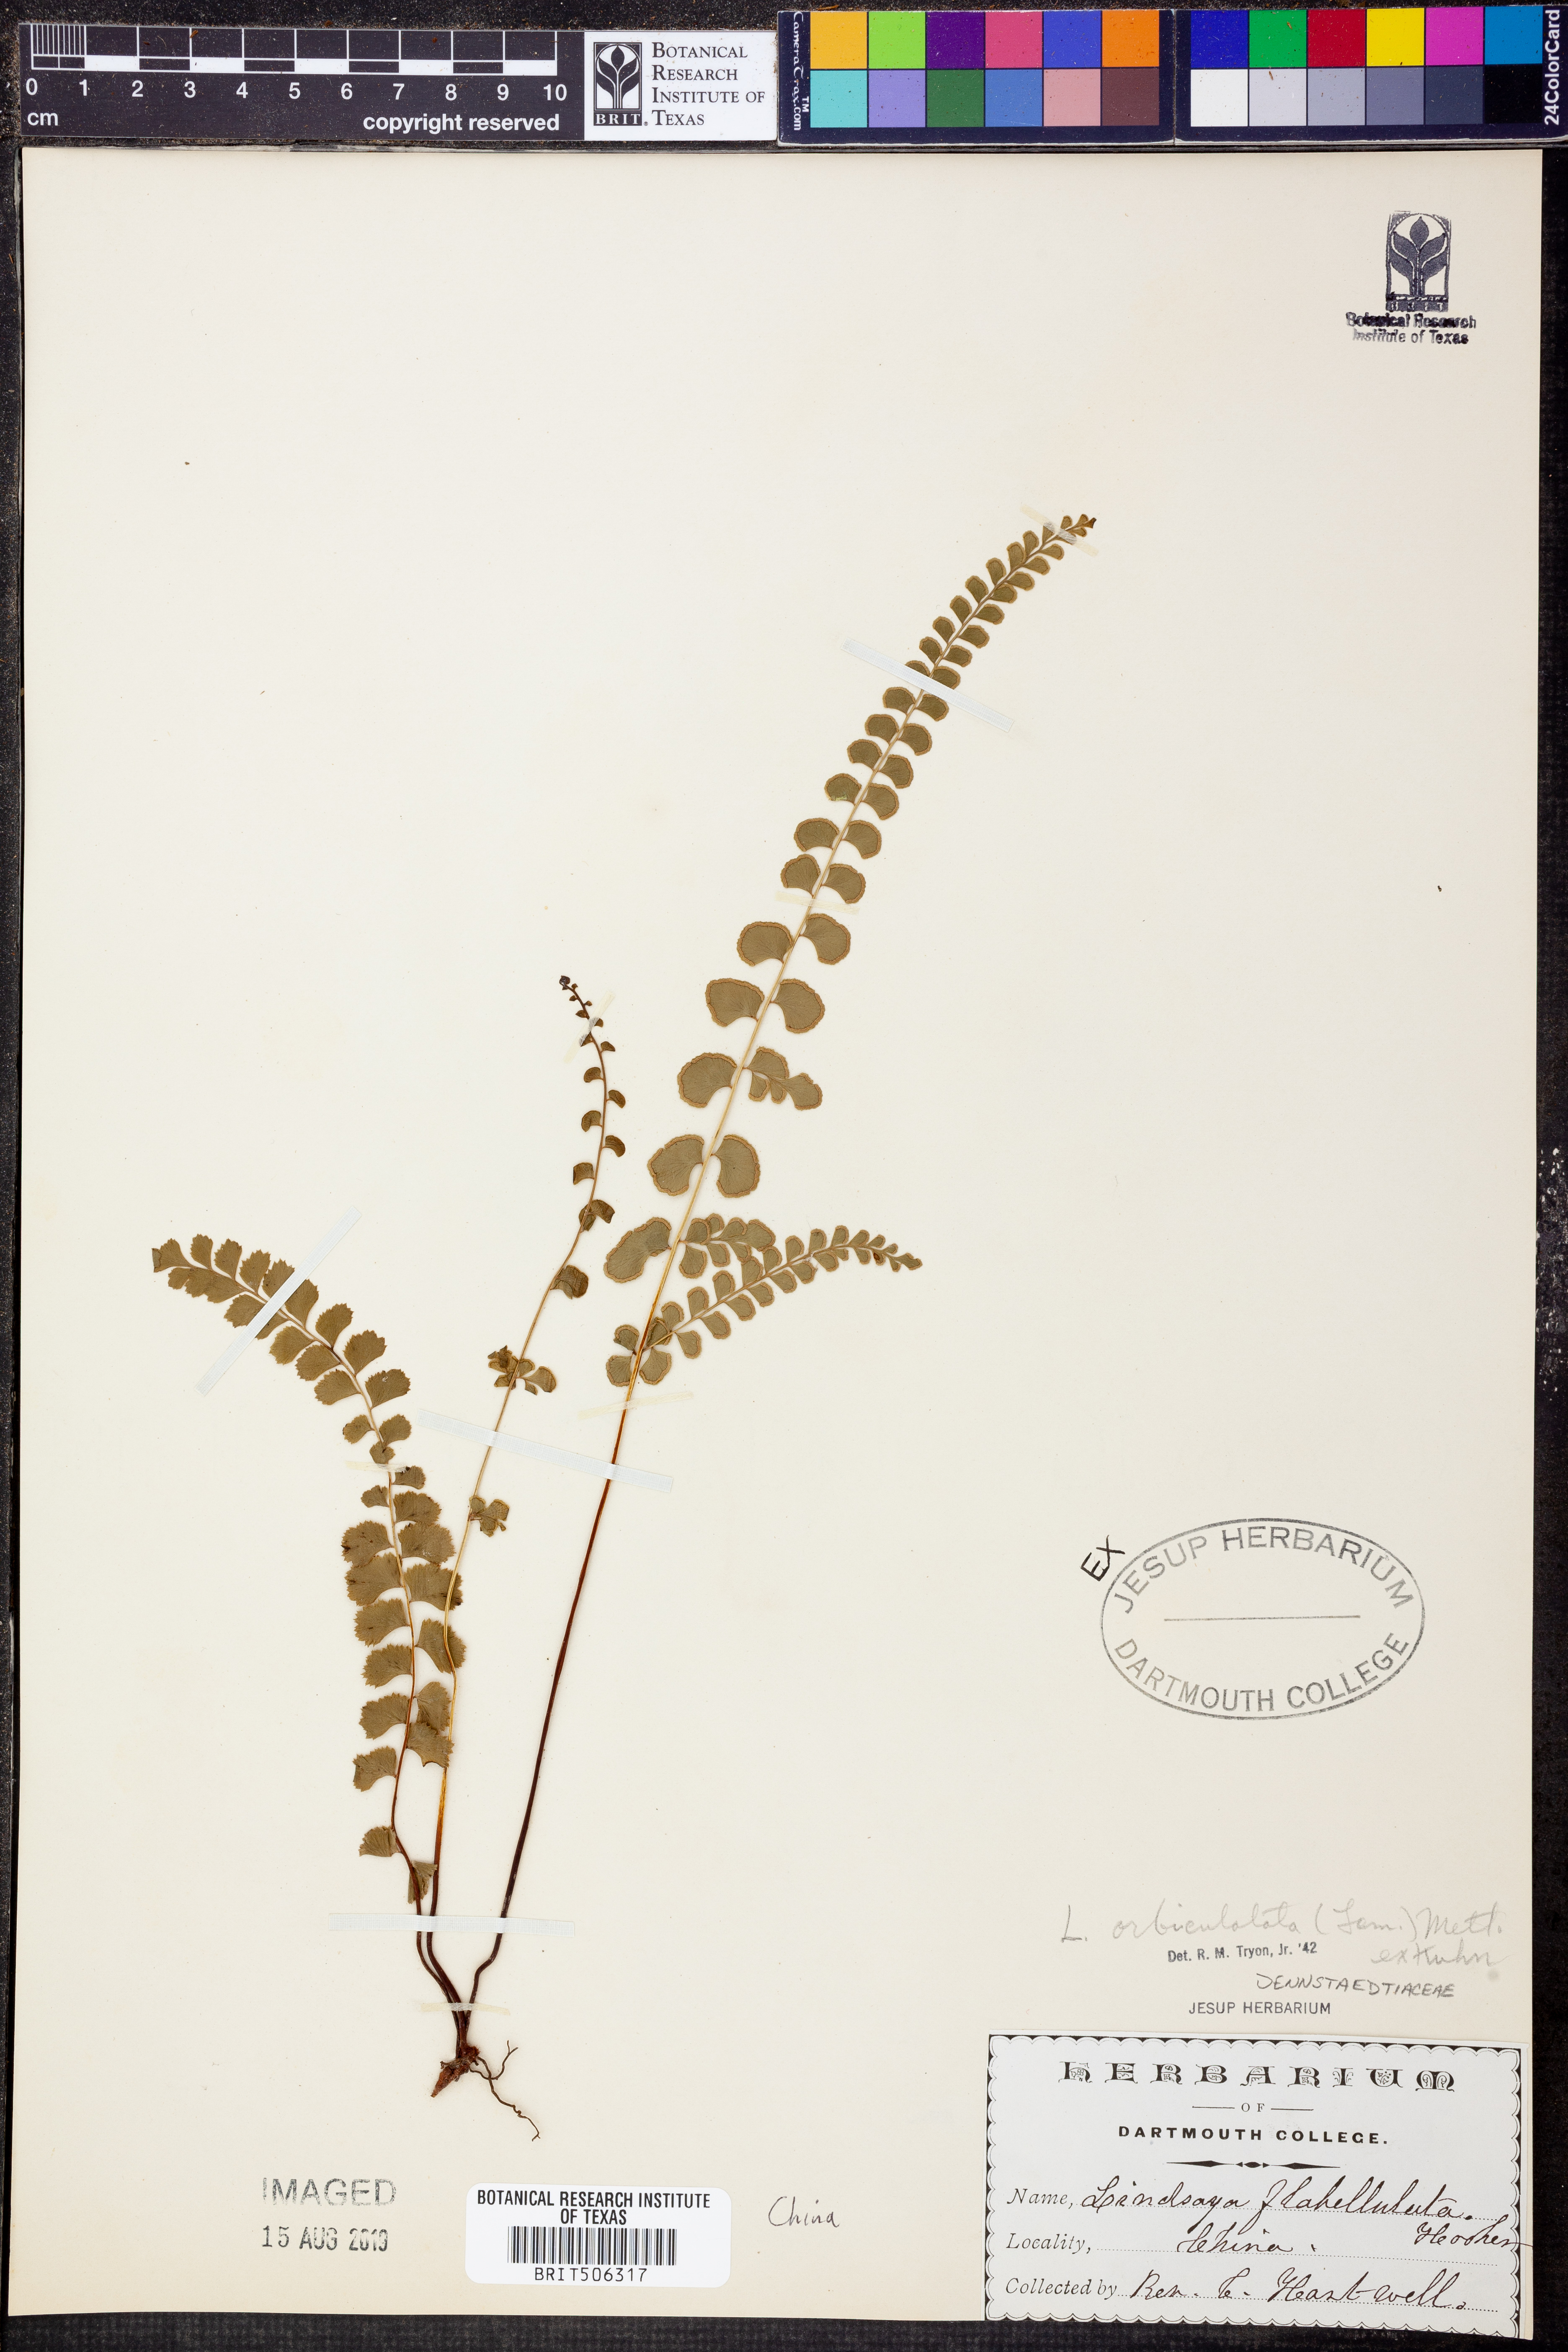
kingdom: Plantae
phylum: Tracheophyta
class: Polypodiopsida
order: Polypodiales
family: Lindsaeaceae
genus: Lindsaea
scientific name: Lindsaea orbiculata
